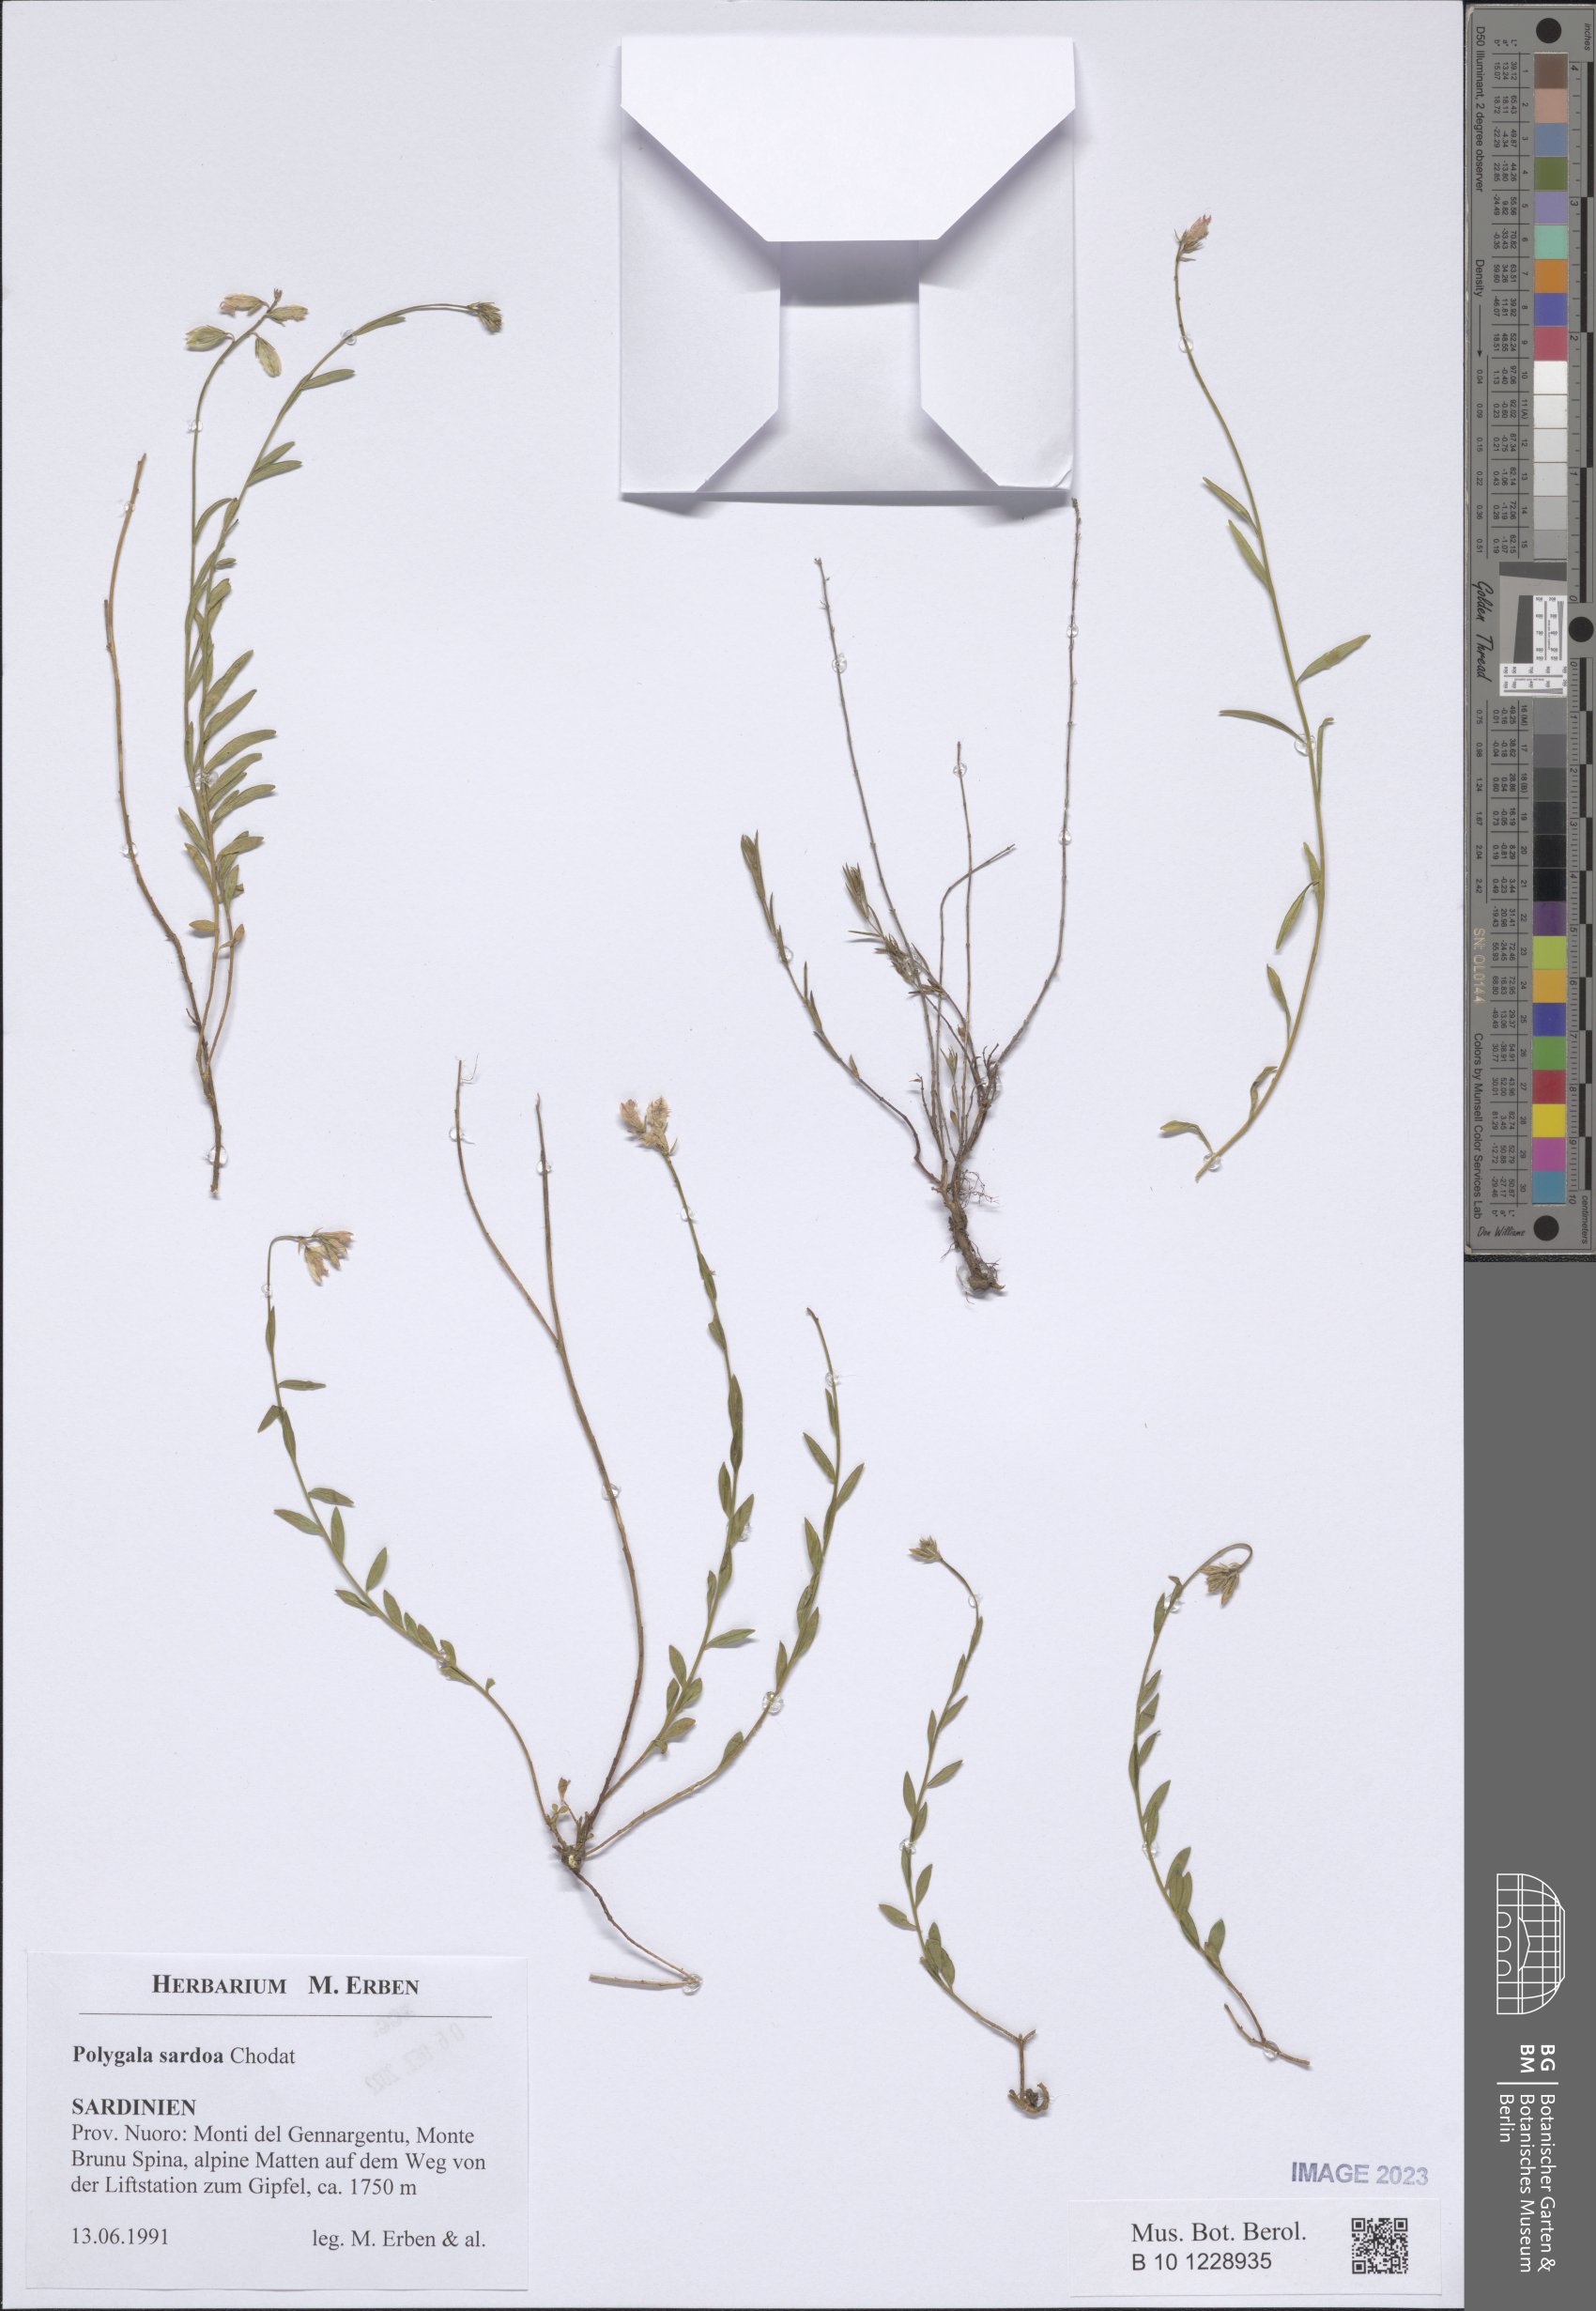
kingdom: Plantae
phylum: Tracheophyta
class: Magnoliopsida
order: Fabales
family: Polygalaceae
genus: Polygala
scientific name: Polygala sardoa
